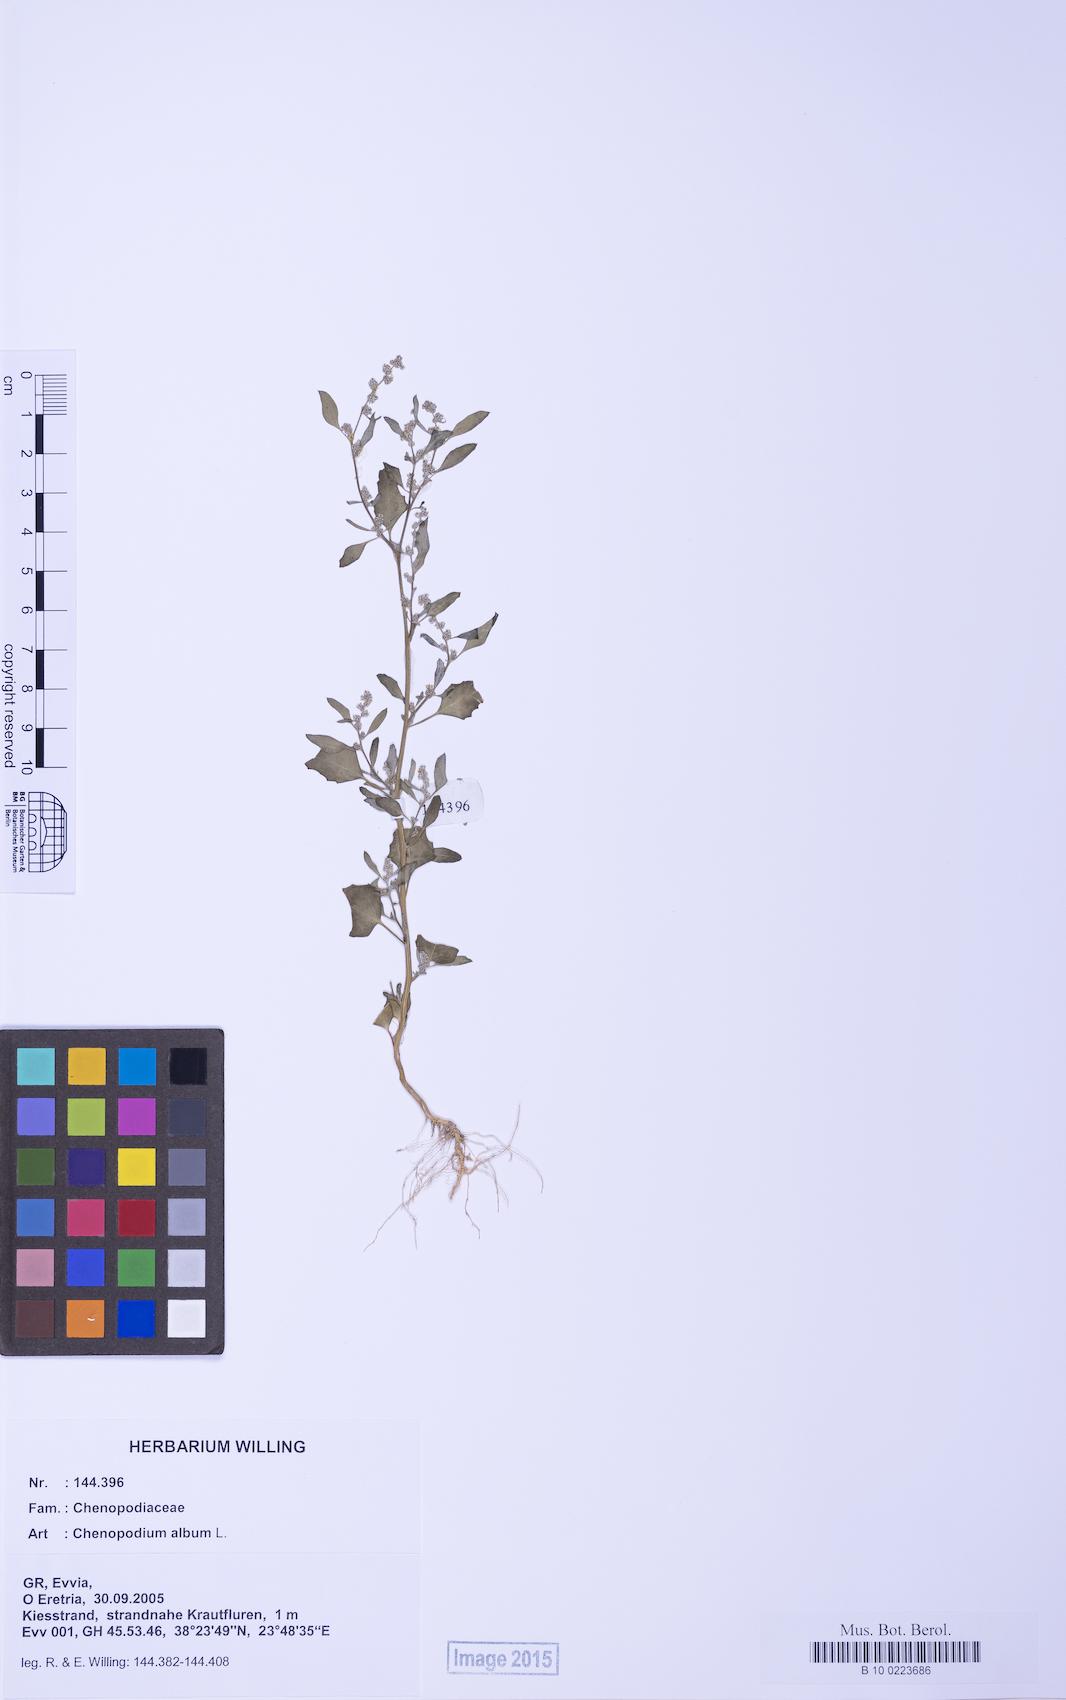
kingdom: Plantae
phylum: Tracheophyta
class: Magnoliopsida
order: Caryophyllales
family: Amaranthaceae
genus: Chenopodium
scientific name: Chenopodium album
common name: Fat-hen
